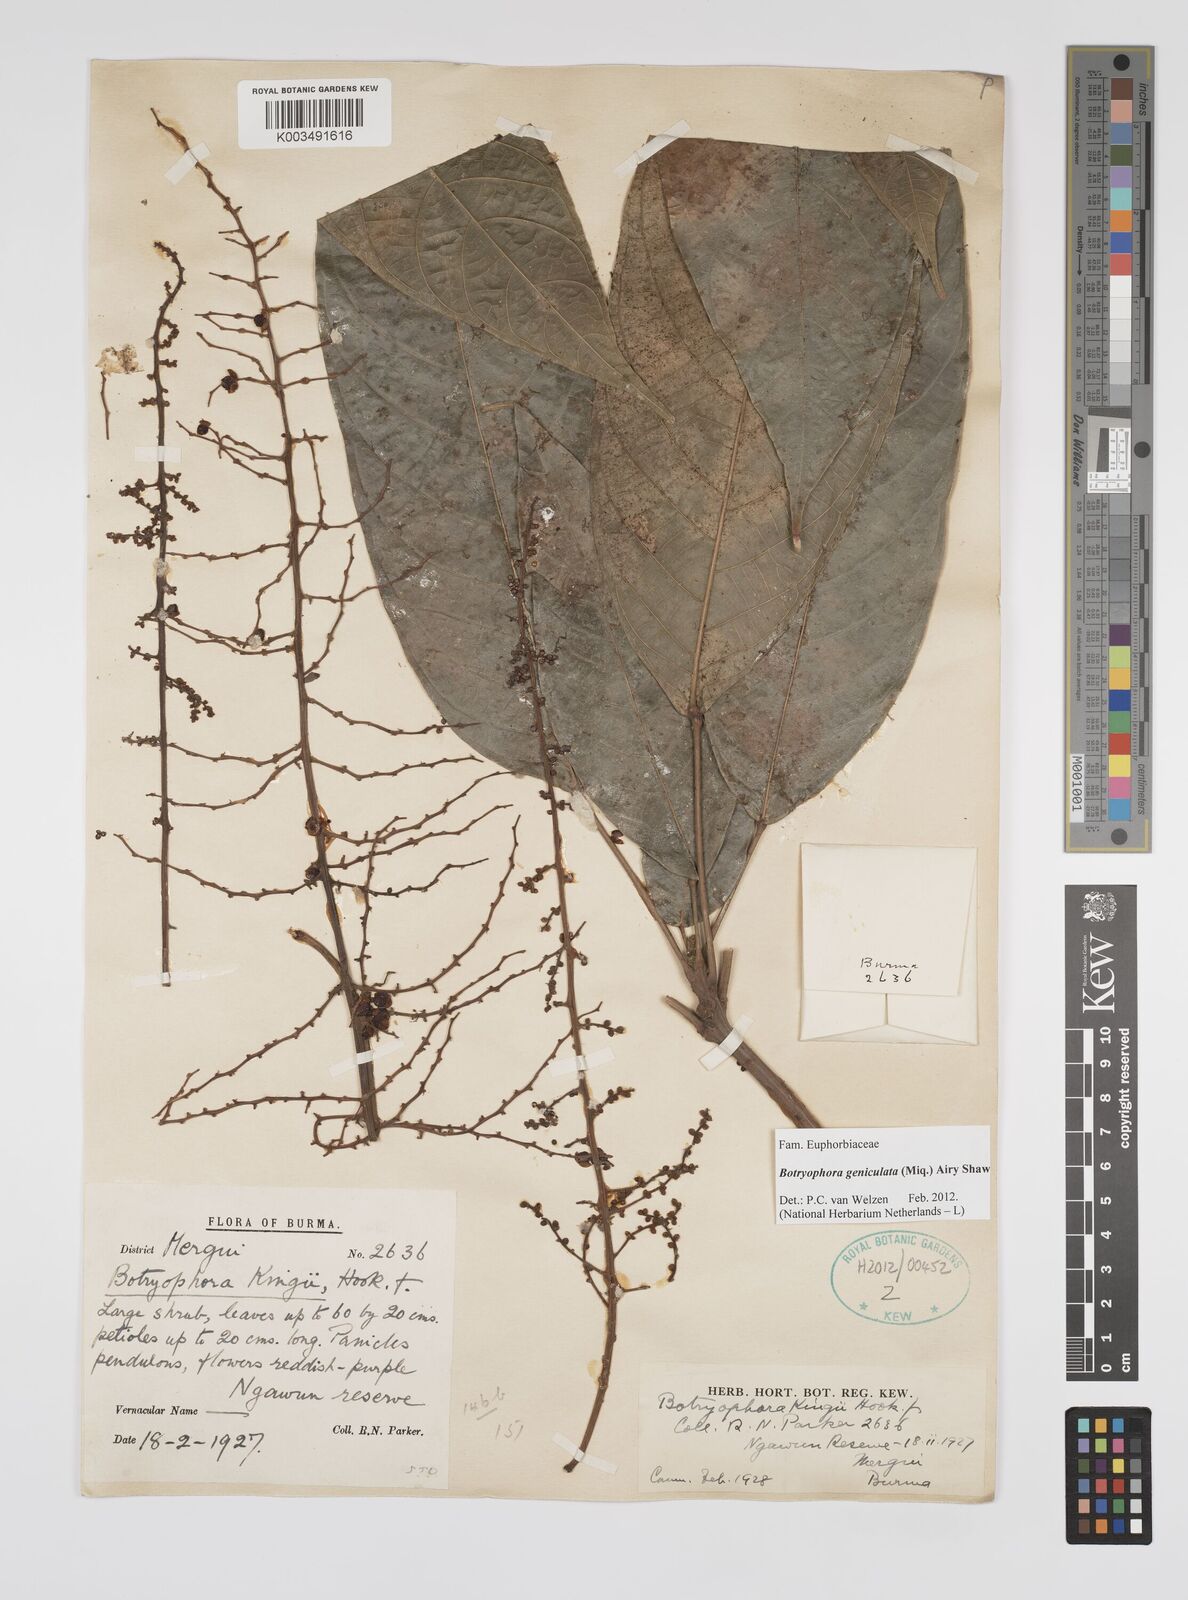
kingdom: Plantae
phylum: Tracheophyta
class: Magnoliopsida
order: Malpighiales
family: Euphorbiaceae
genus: Botryophora
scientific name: Botryophora geniculata
